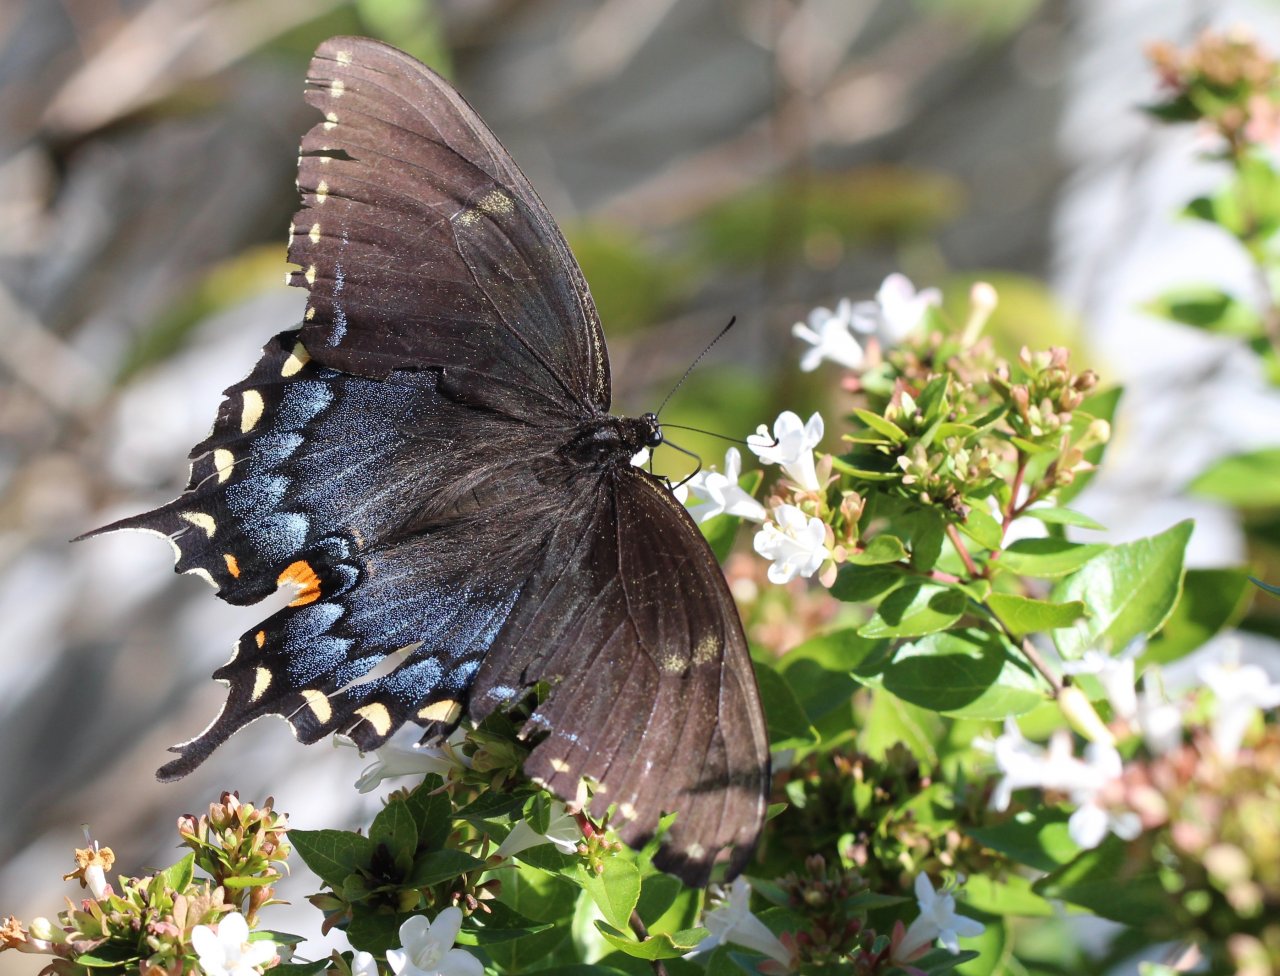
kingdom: Animalia
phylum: Arthropoda
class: Insecta
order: Lepidoptera
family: Papilionidae
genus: Pterourus
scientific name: Pterourus glaucus
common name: Eastern Tiger Swallowtail
